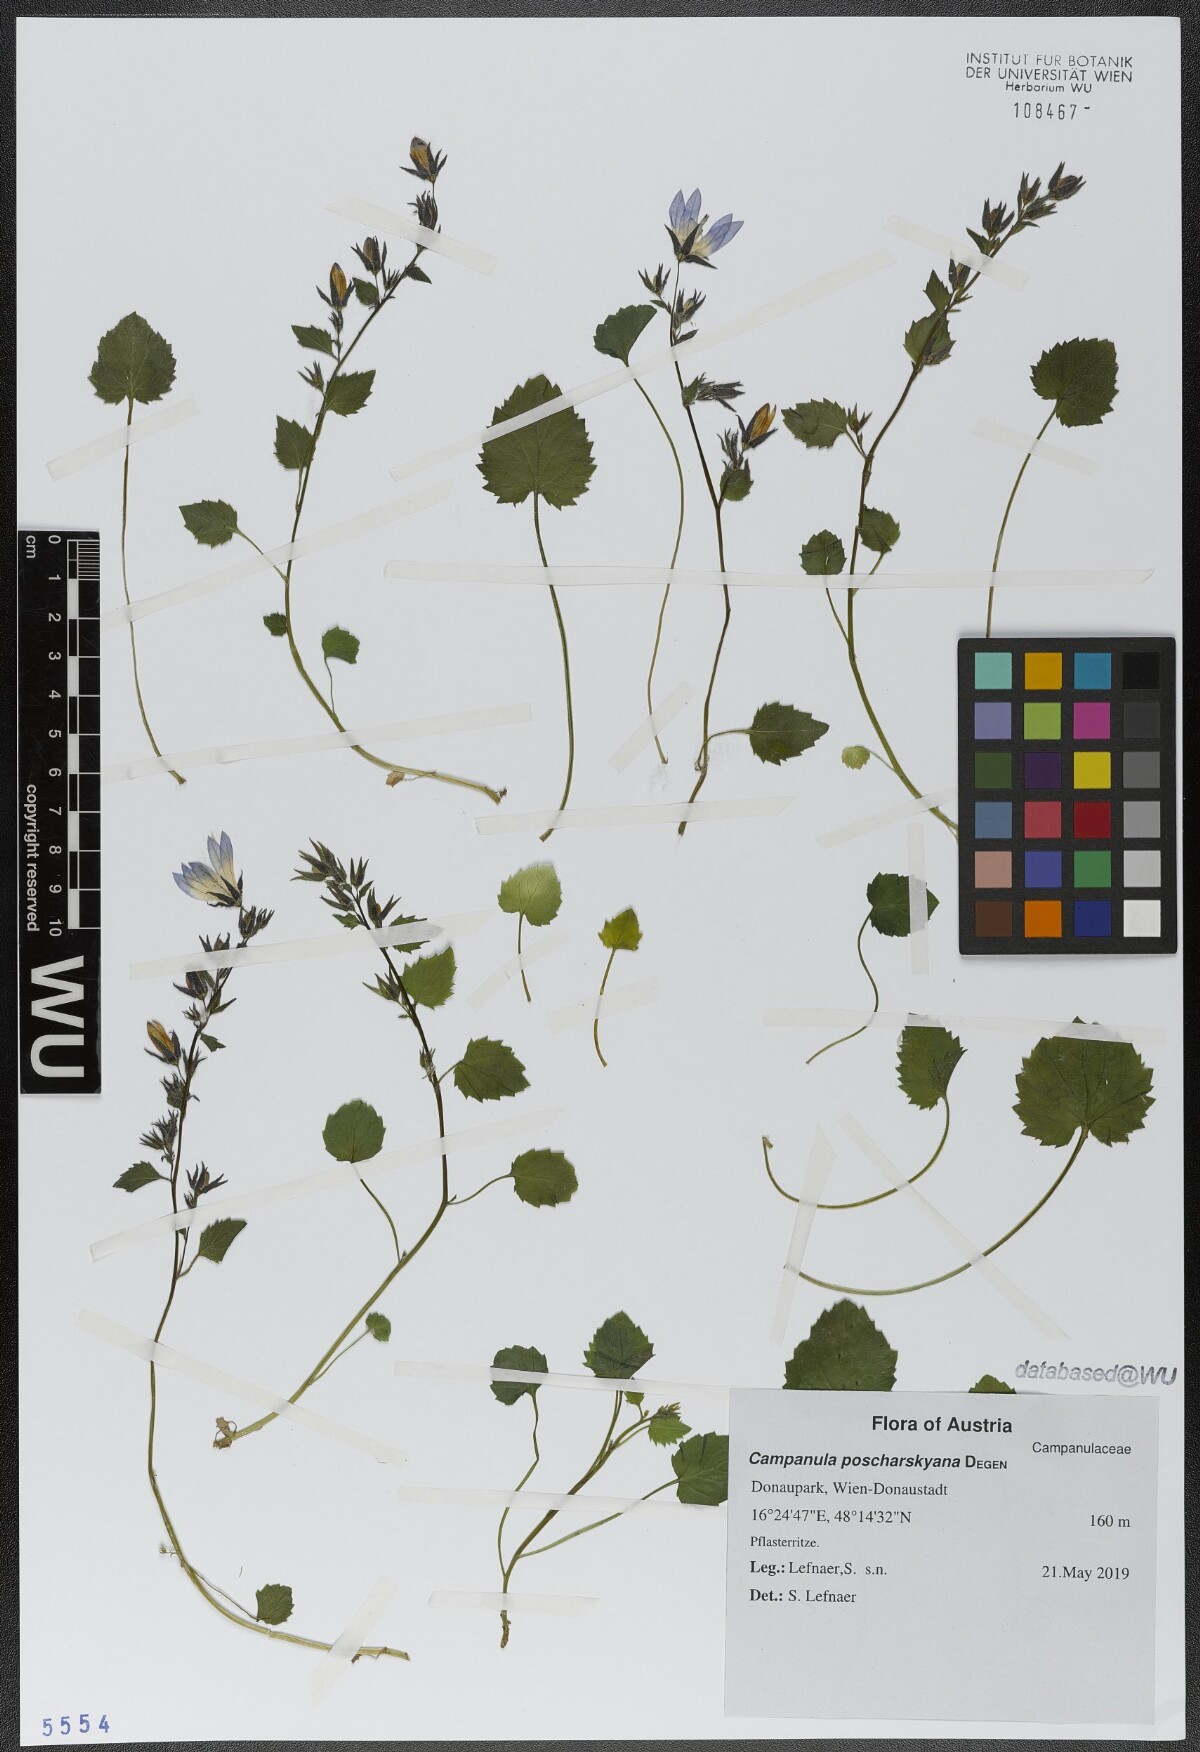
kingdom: Plantae
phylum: Tracheophyta
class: Magnoliopsida
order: Asterales
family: Campanulaceae
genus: Campanula
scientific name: Campanula poscharskyana
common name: Trailing bellflower
